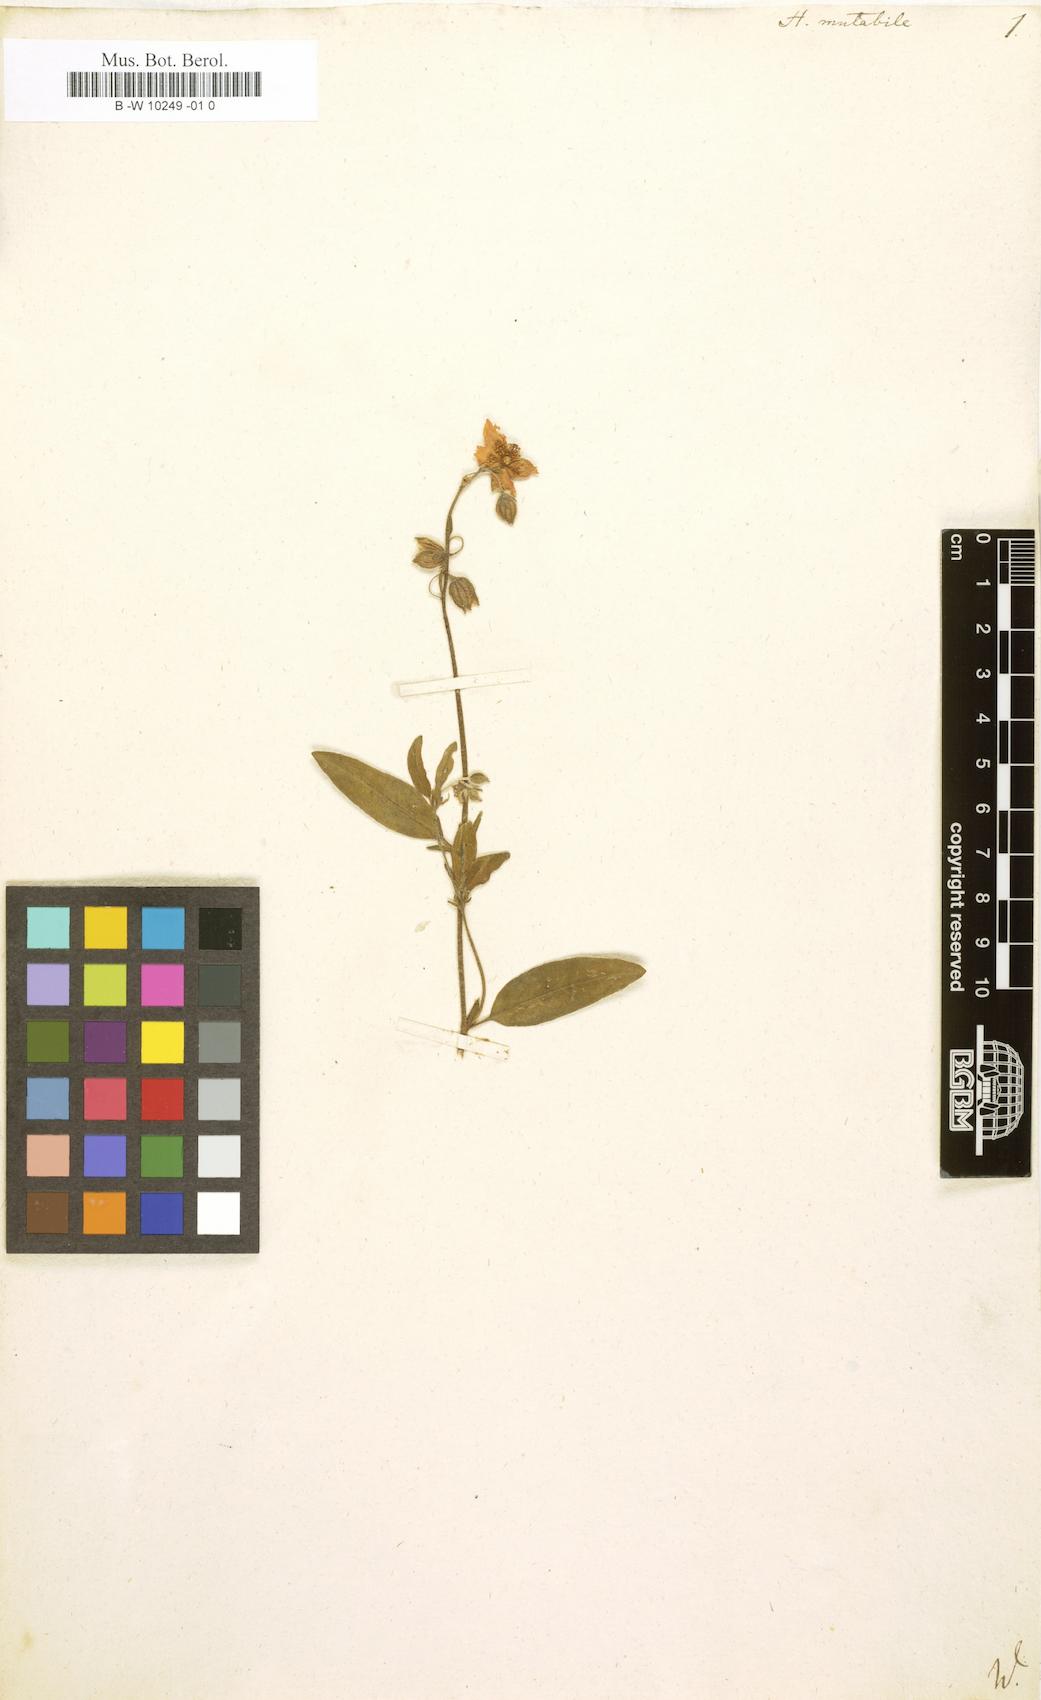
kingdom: Plantae
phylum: Tracheophyta
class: Magnoliopsida
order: Malvales
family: Cistaceae
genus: Helianthemum
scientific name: Helianthemum nummularium
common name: Common rock-rose
